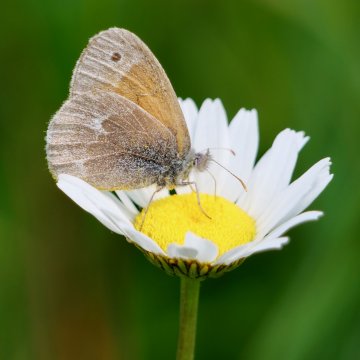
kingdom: Animalia
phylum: Arthropoda
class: Insecta
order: Lepidoptera
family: Nymphalidae
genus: Coenonympha
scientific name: Coenonympha tullia
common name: Large Heath
